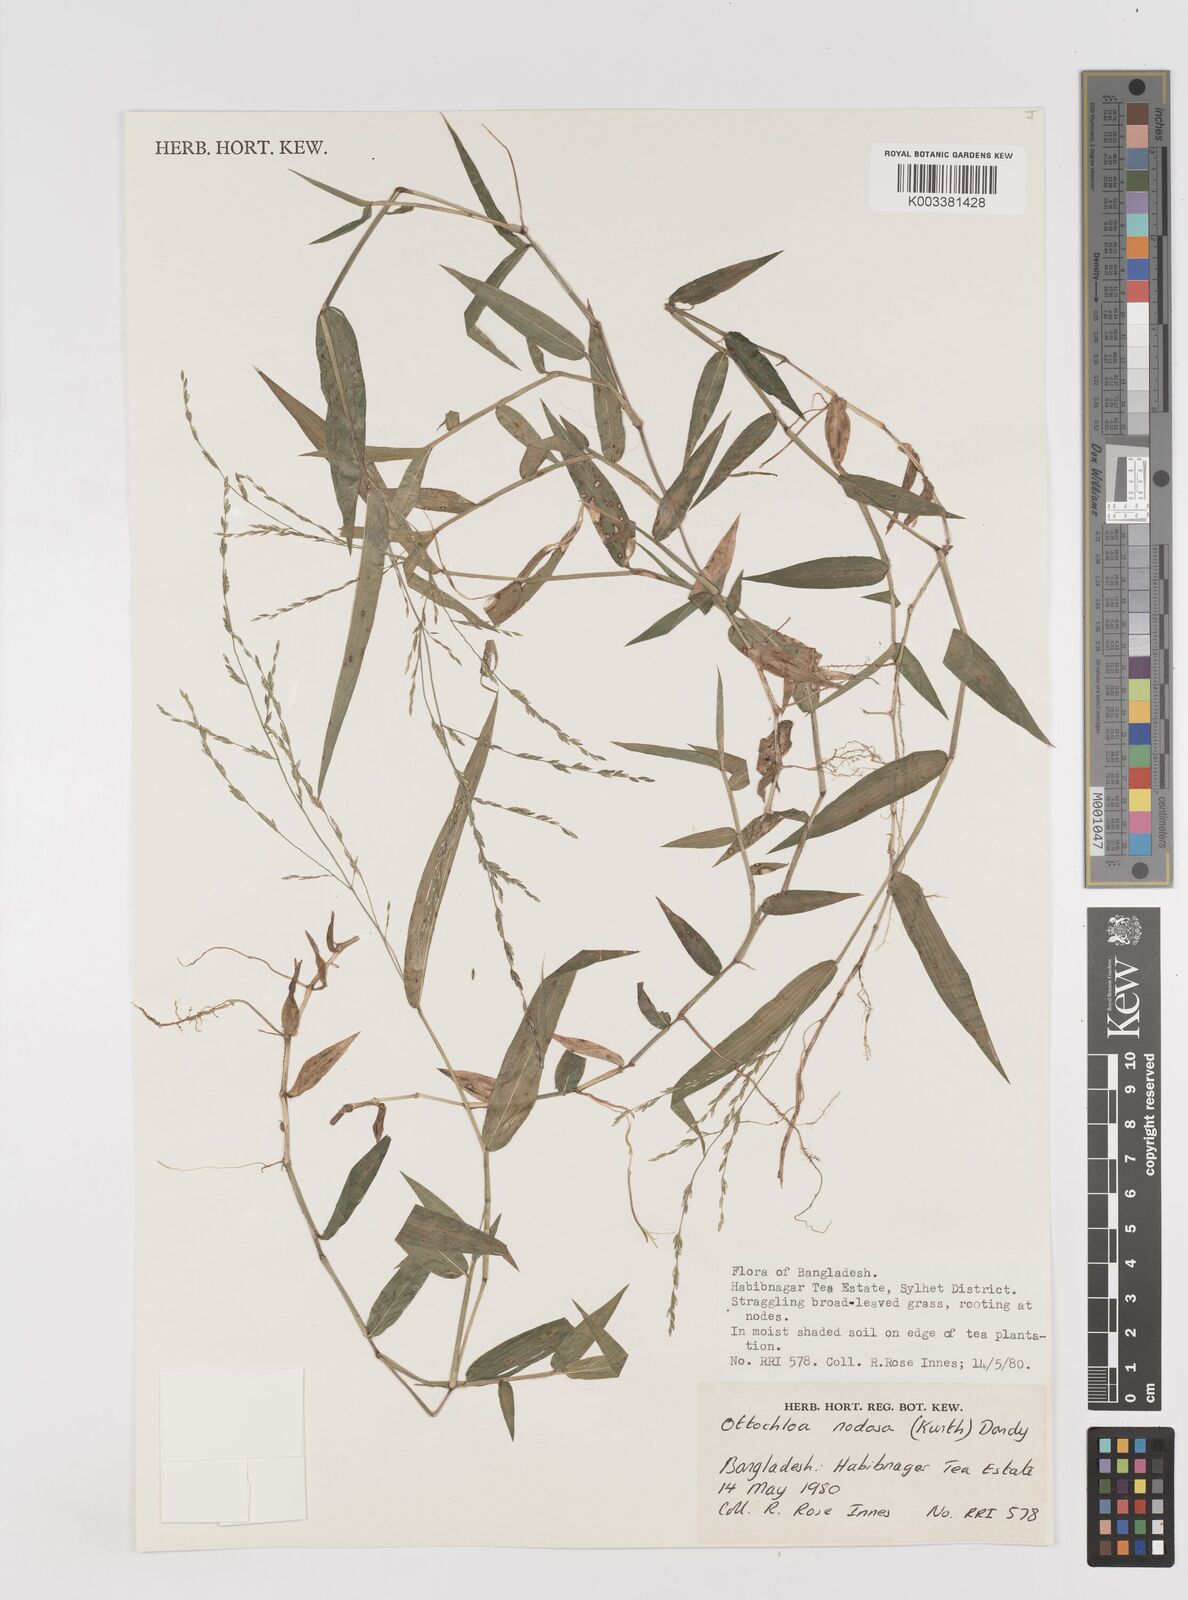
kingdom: Plantae
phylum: Tracheophyta
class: Liliopsida
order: Poales
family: Poaceae
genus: Ottochloa
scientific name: Ottochloa
